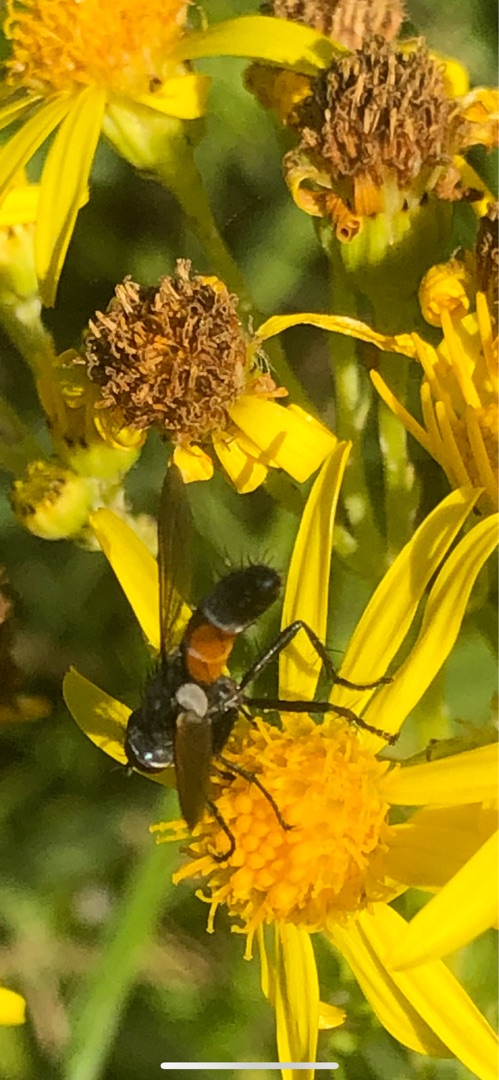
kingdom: Animalia
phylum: Arthropoda
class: Insecta
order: Diptera
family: Tachinidae
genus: Cylindromyia
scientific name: Cylindromyia brassicaria
